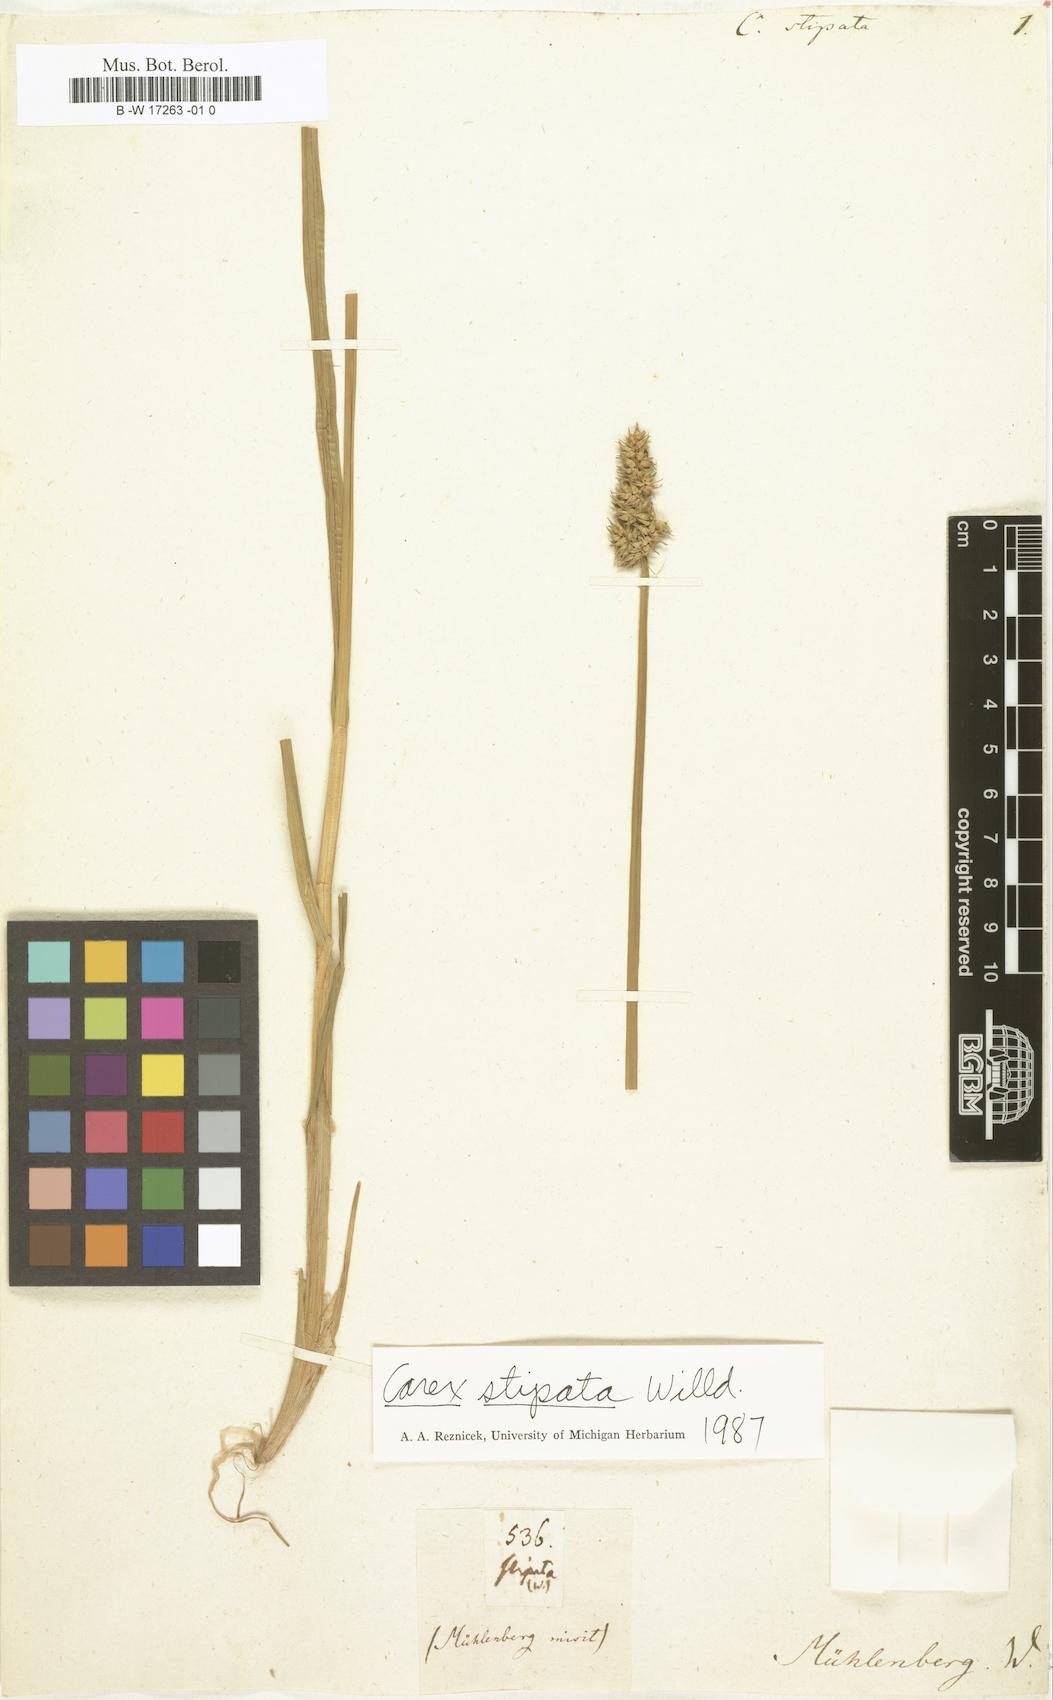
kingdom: Plantae
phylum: Tracheophyta
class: Liliopsida
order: Poales
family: Cyperaceae
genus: Carex
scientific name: Carex stipata
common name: Awl-fruited sedge
